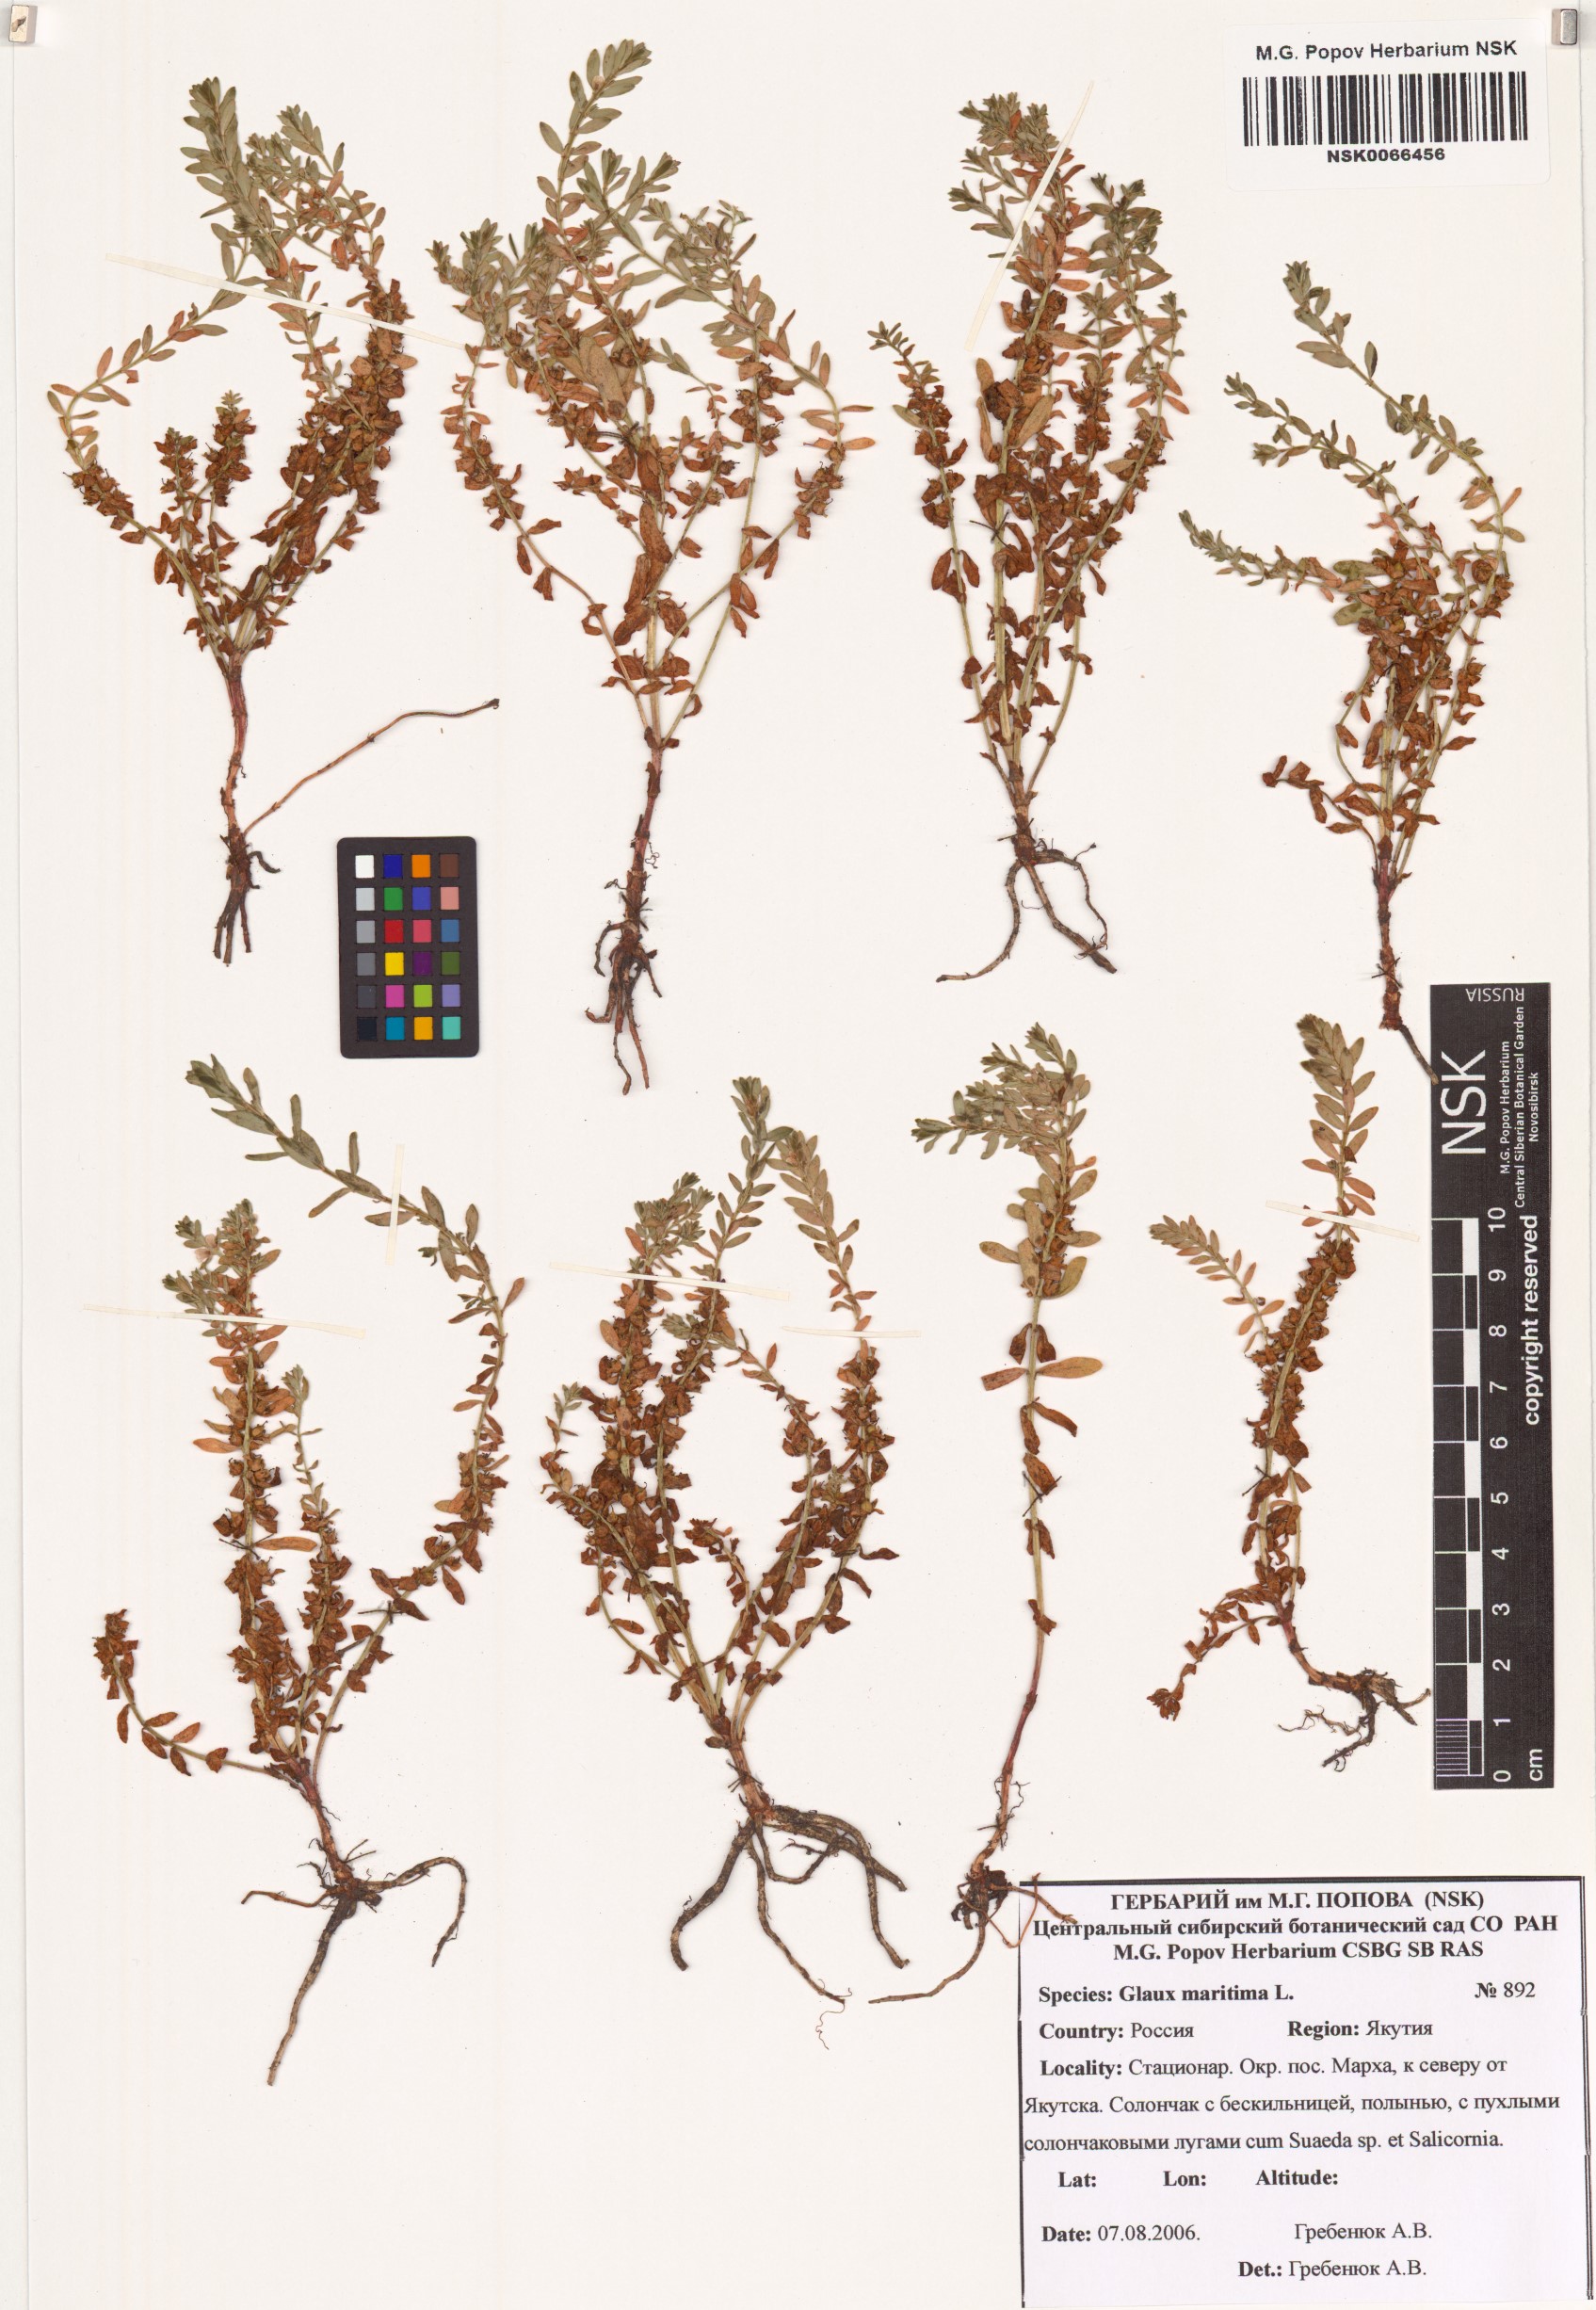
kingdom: Plantae
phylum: Tracheophyta
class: Magnoliopsida
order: Ericales
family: Primulaceae
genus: Lysimachia
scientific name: Lysimachia maritima
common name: Sea milkwort
